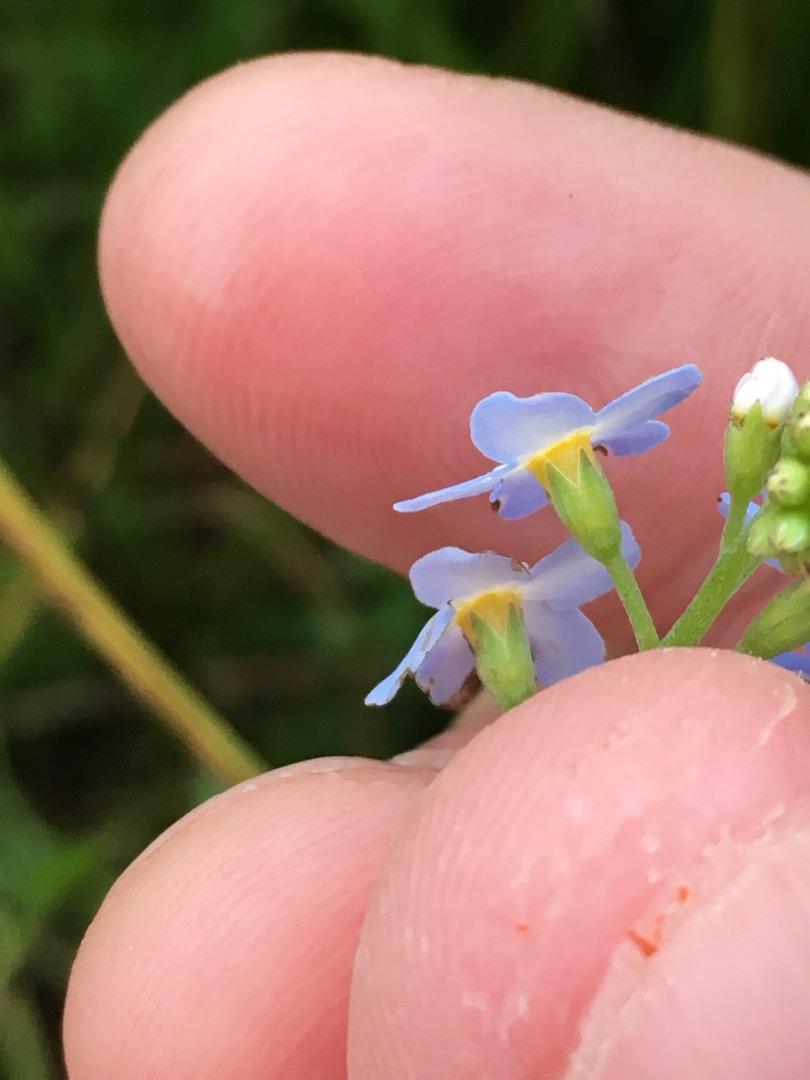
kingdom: Plantae
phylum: Tracheophyta
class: Magnoliopsida
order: Boraginales
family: Boraginaceae
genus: Myosotis
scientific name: Myosotis scorpioides
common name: Eng-forglemmigej
